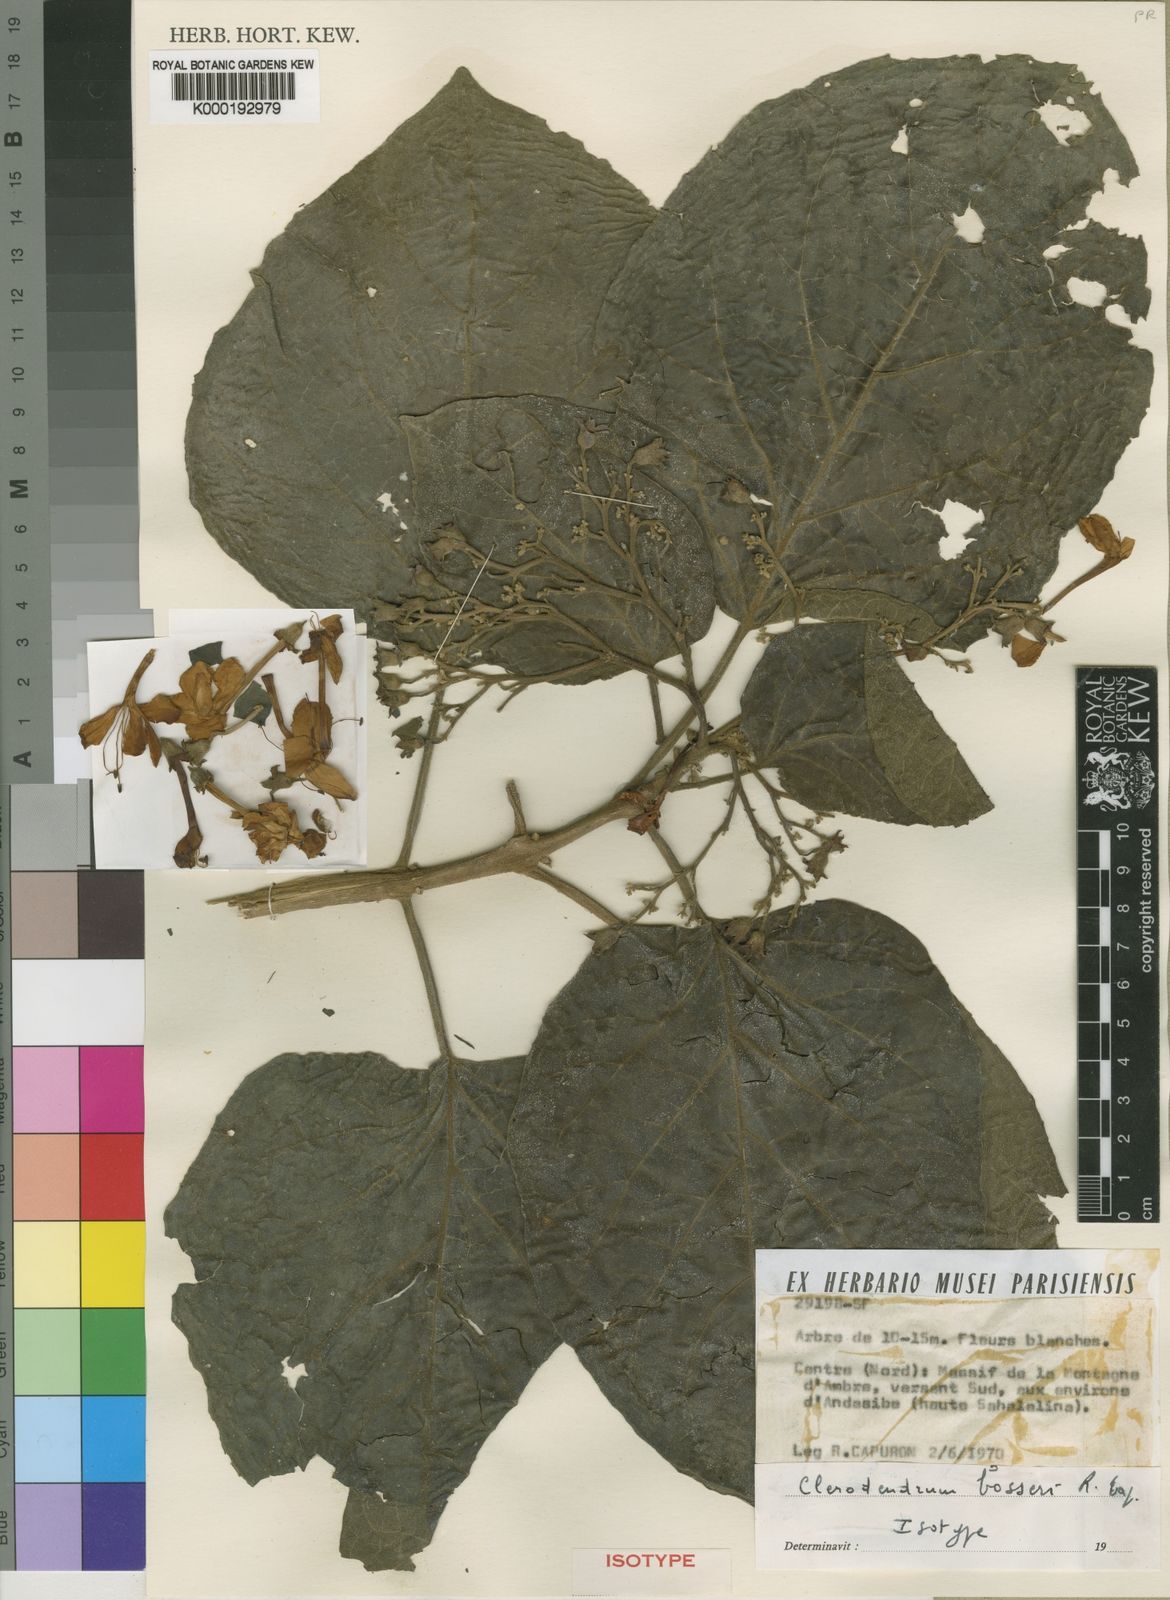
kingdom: Plantae
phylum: Tracheophyta
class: Magnoliopsida
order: Lamiales
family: Lamiaceae
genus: Clerodendrum
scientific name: Clerodendrum bosseri
